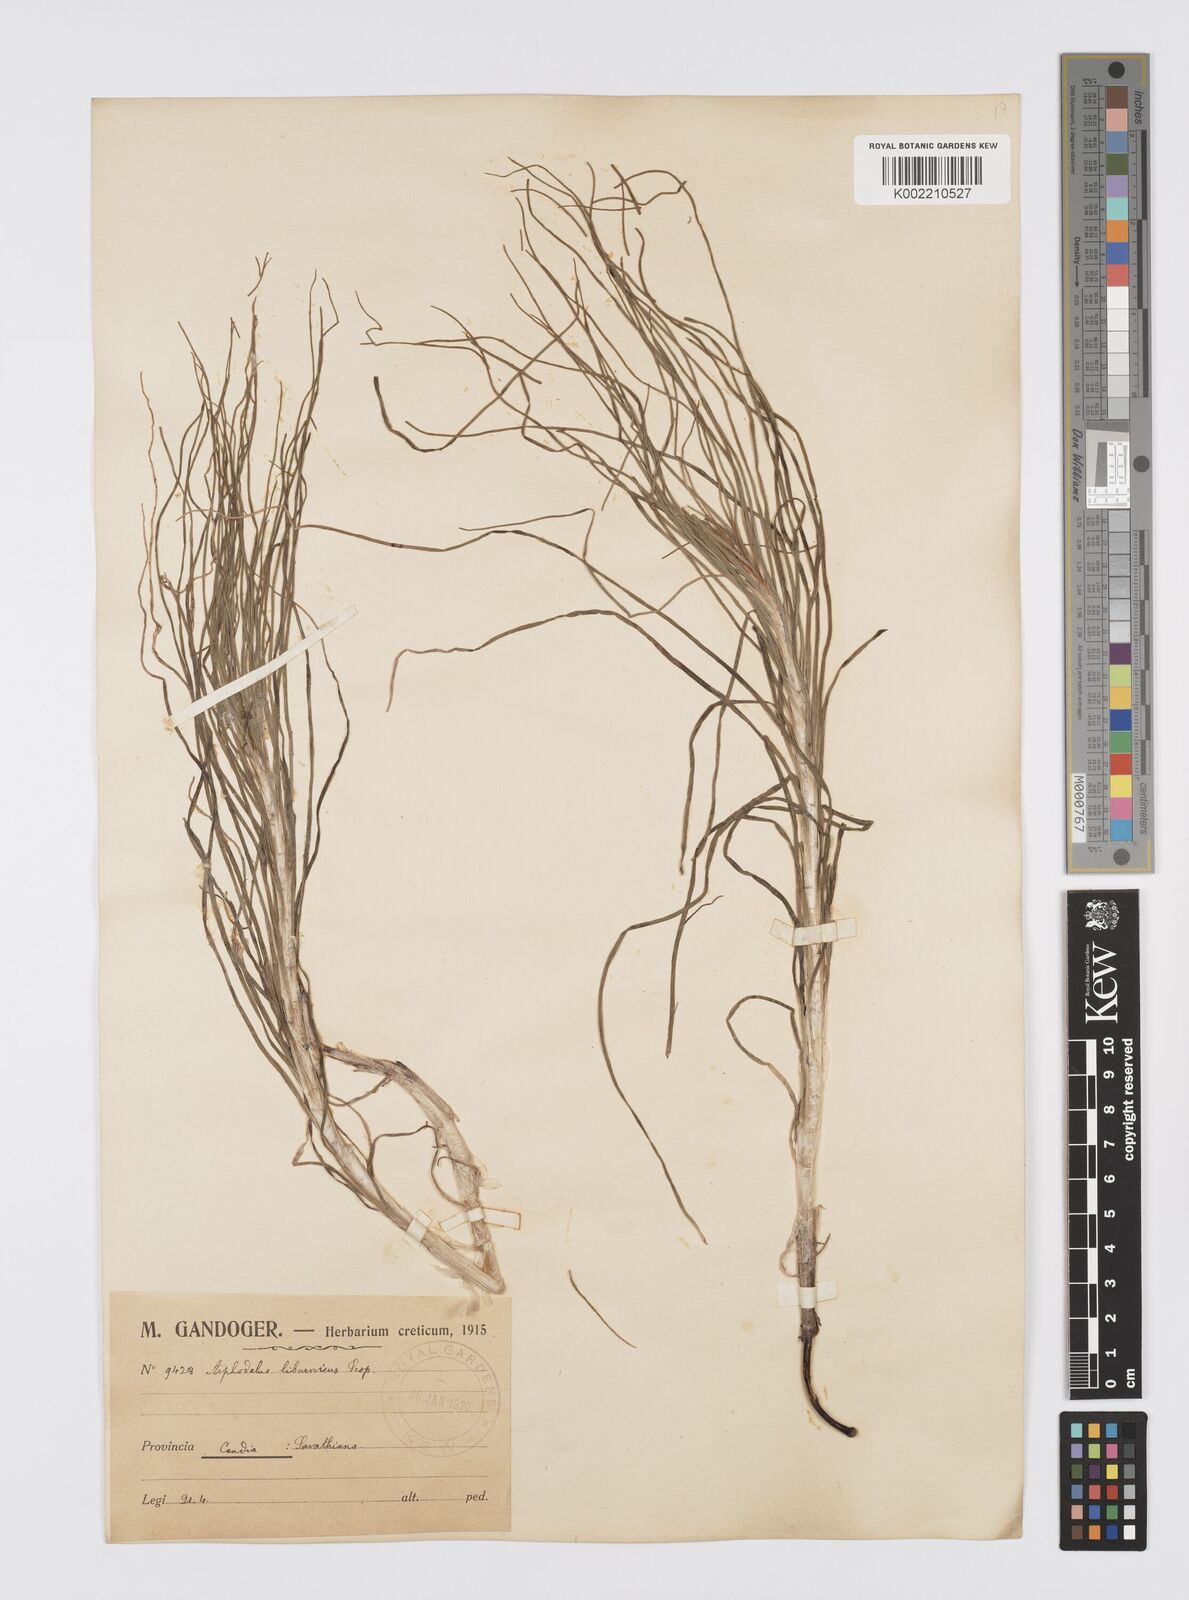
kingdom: Plantae
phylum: Tracheophyta
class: Liliopsida
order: Asparagales
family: Asphodelaceae
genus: Asphodeline
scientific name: Asphodeline liburnica
